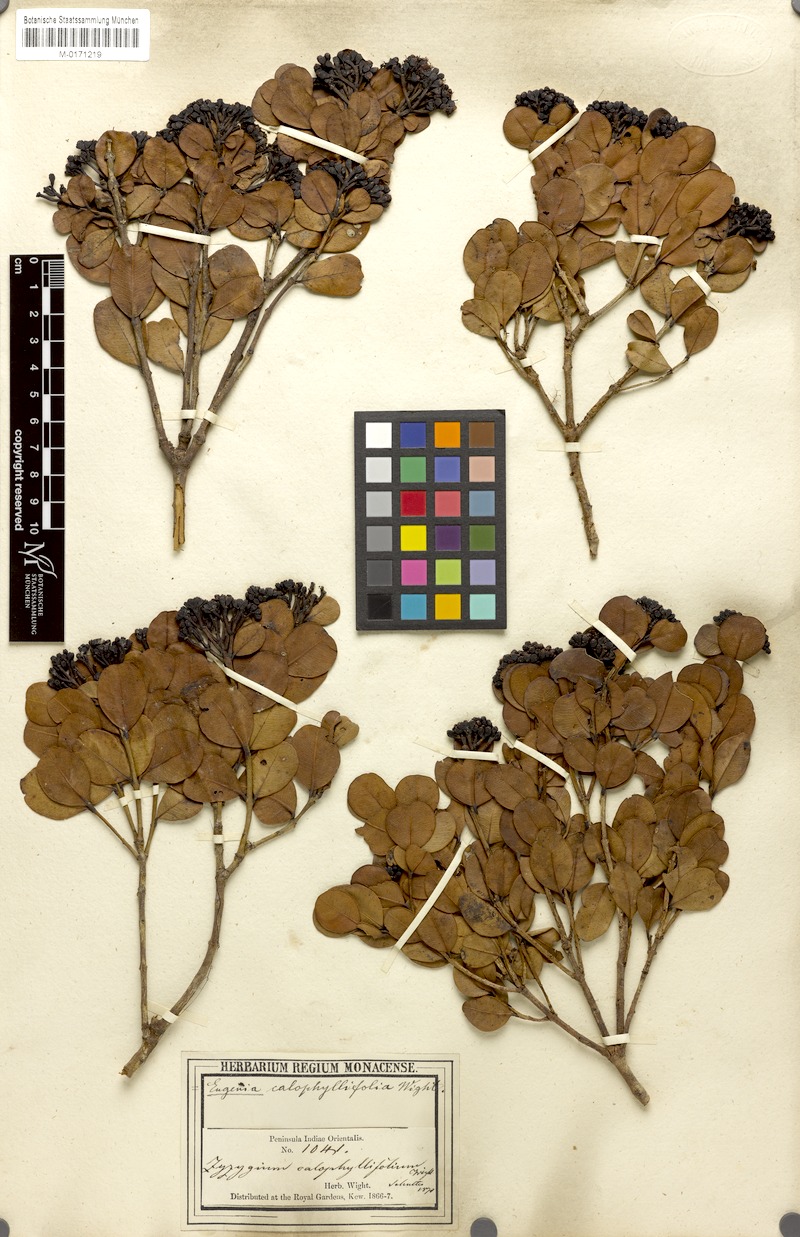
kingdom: Plantae
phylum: Tracheophyta
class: Magnoliopsida
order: Myrtales
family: Myrtaceae
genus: Syzygium
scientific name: Syzygium calophyllifolium
